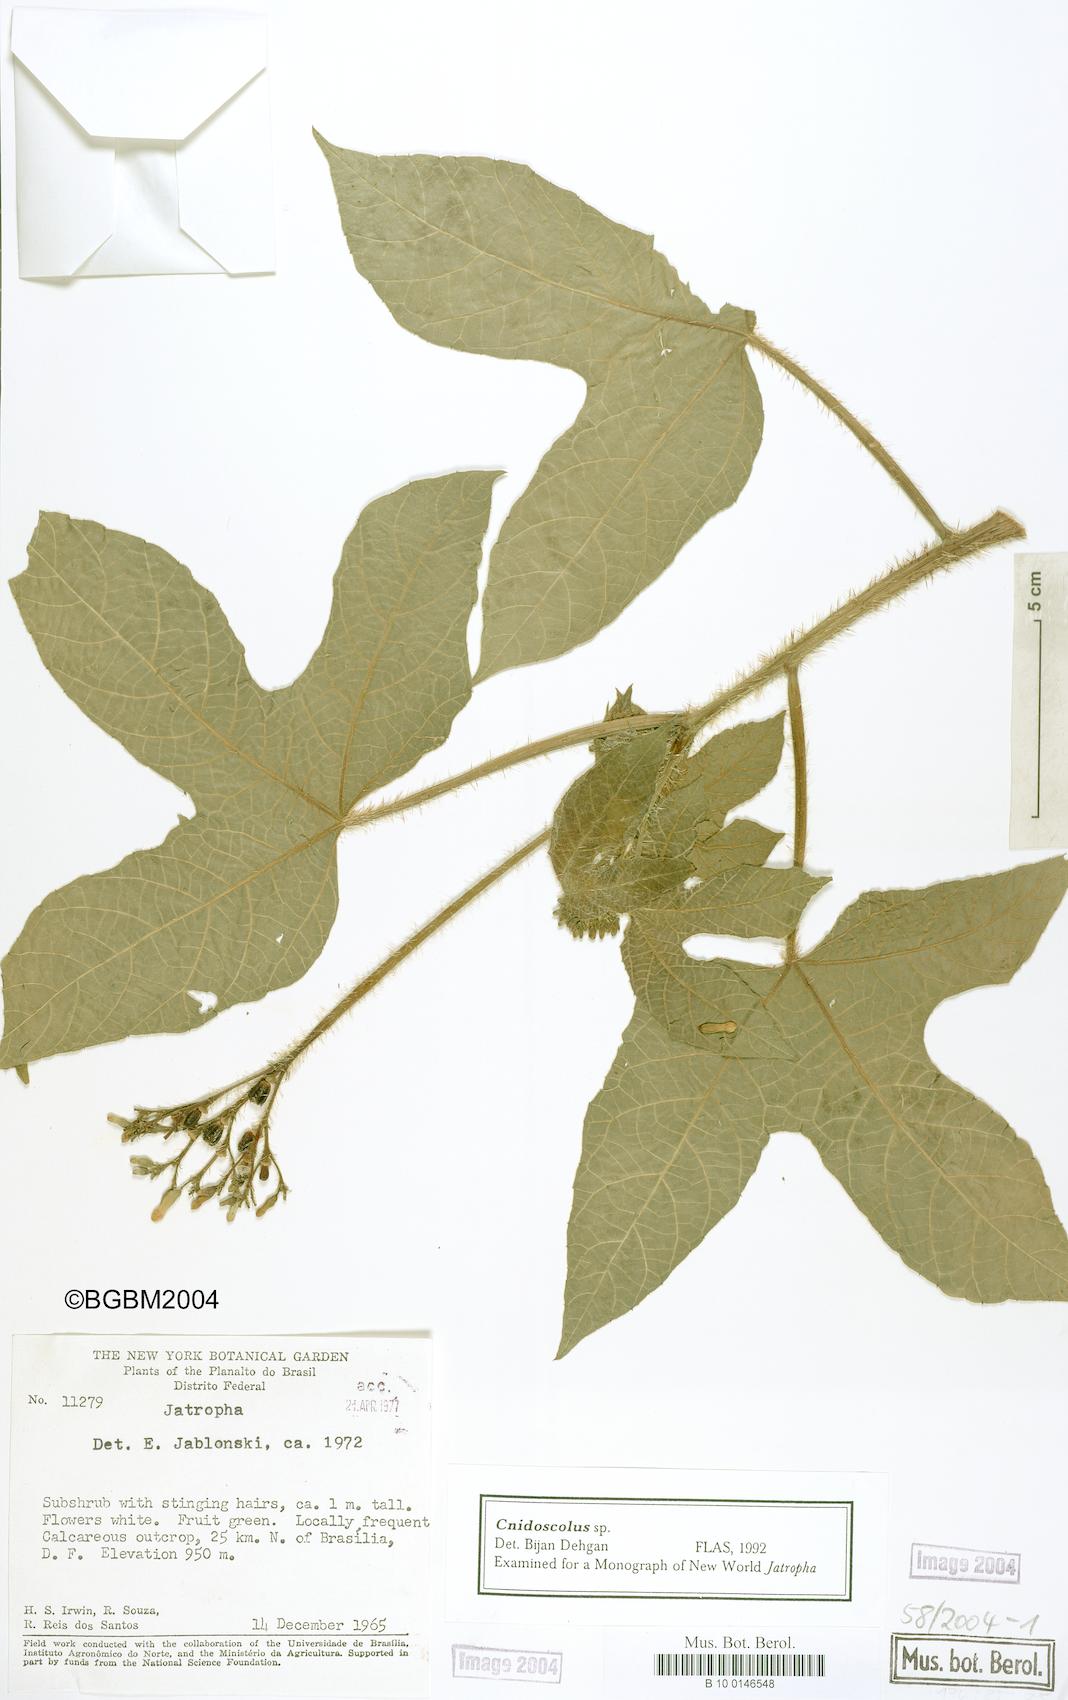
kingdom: Plantae
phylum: Tracheophyta
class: Magnoliopsida
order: Malpighiales
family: Euphorbiaceae
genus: Cnidoscolus
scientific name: Cnidoscolus
